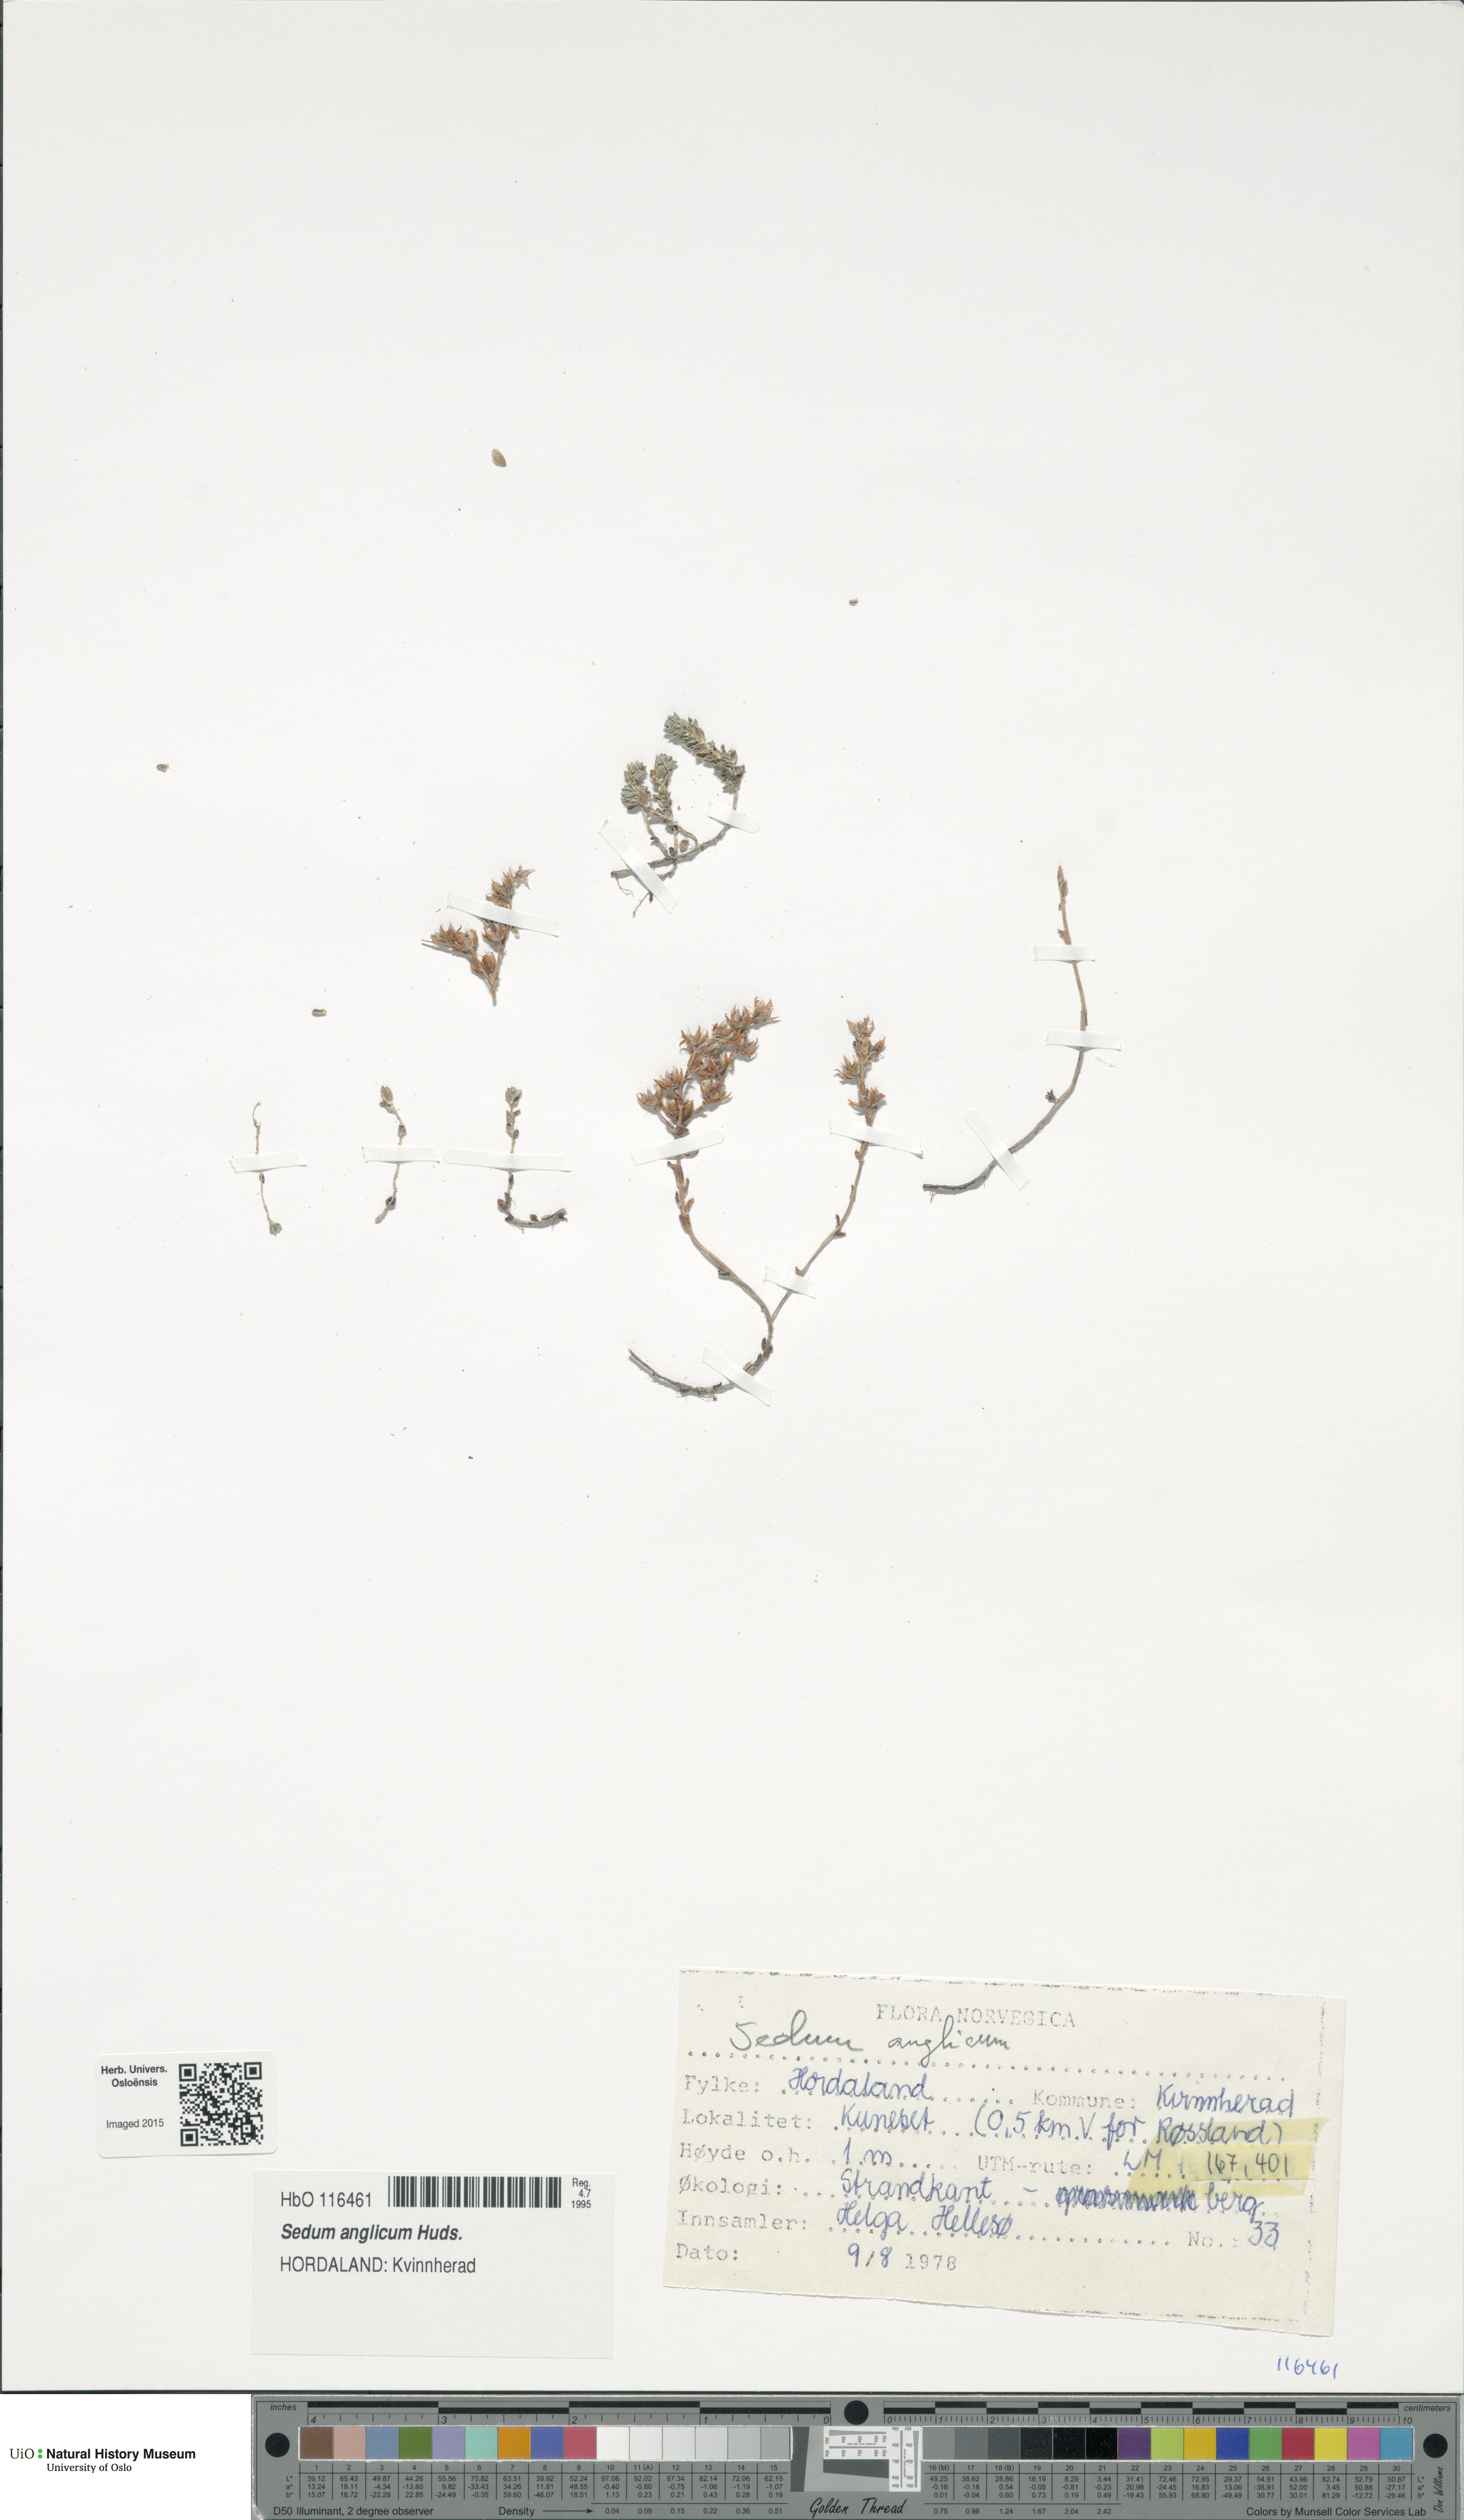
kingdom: Plantae
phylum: Tracheophyta
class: Magnoliopsida
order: Saxifragales
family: Crassulaceae
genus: Sedum
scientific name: Sedum anglicum
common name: English stonecrop
